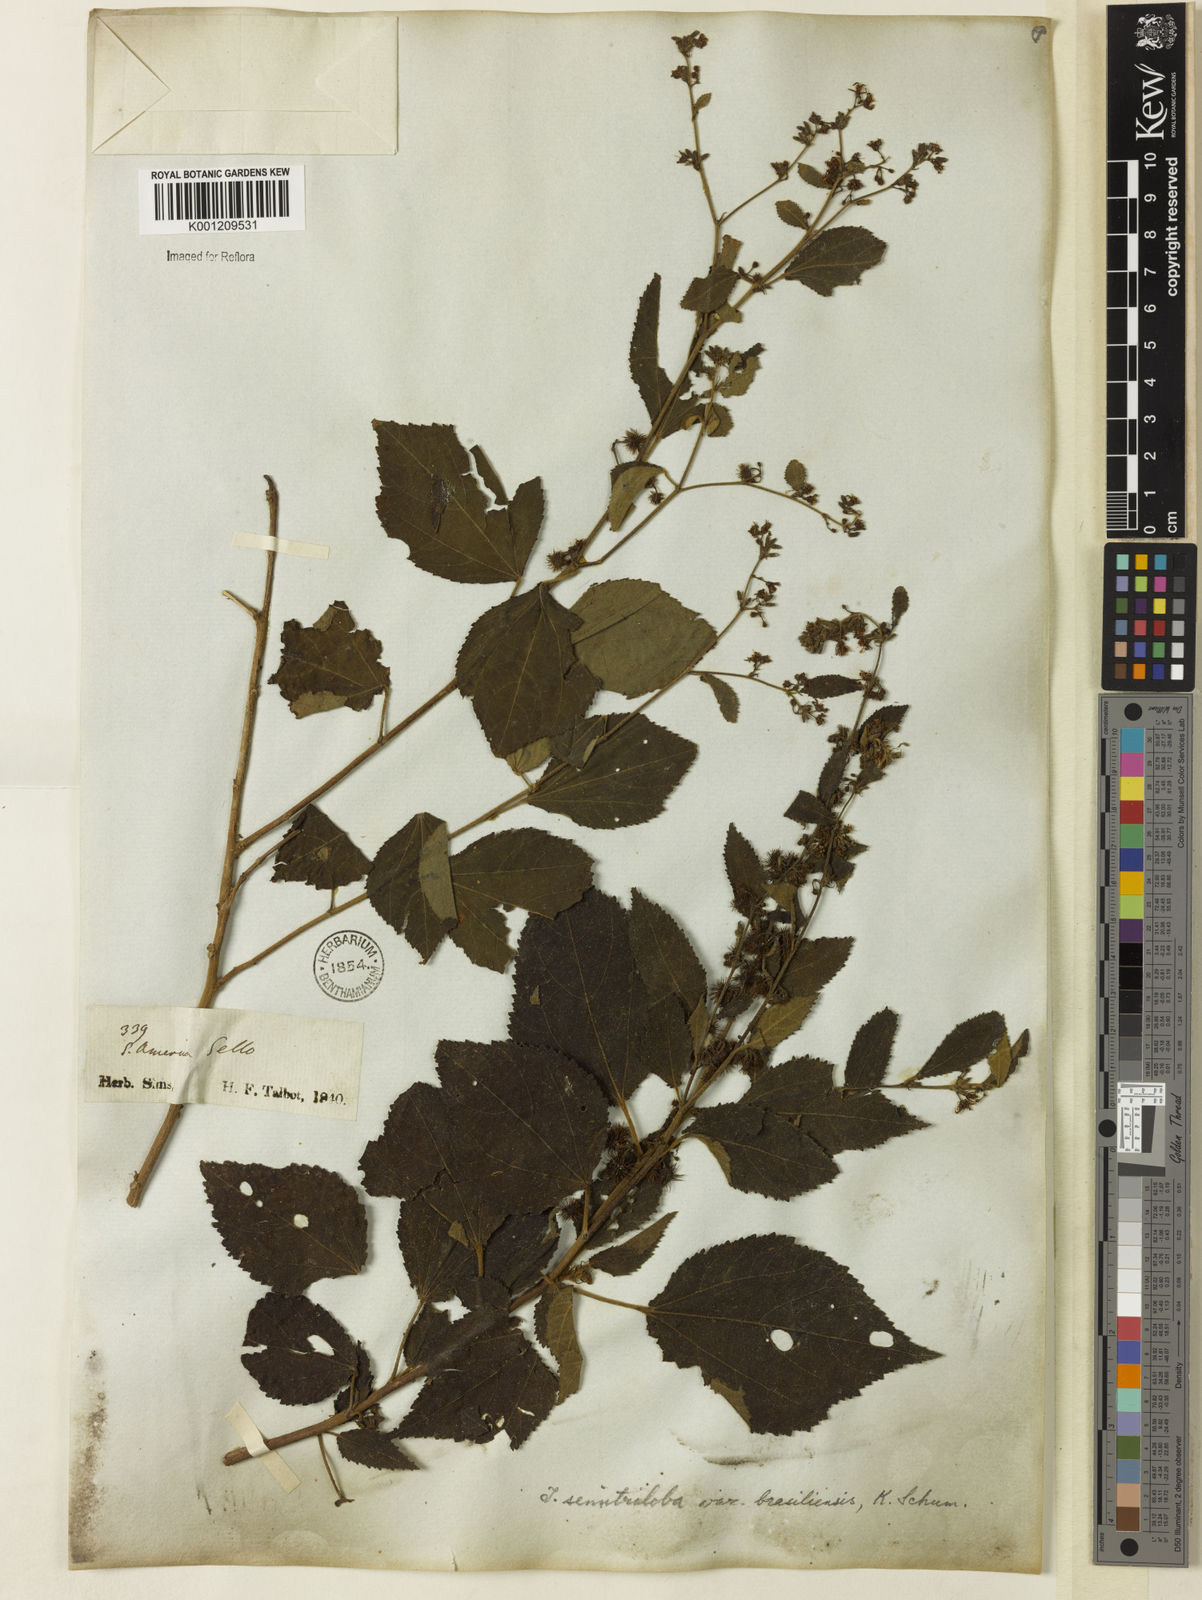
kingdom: Plantae
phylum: Tracheophyta
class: Magnoliopsida
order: Malvales
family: Malvaceae
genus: Triumfetta
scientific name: Triumfetta semitriloba
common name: Sacramento burbark
